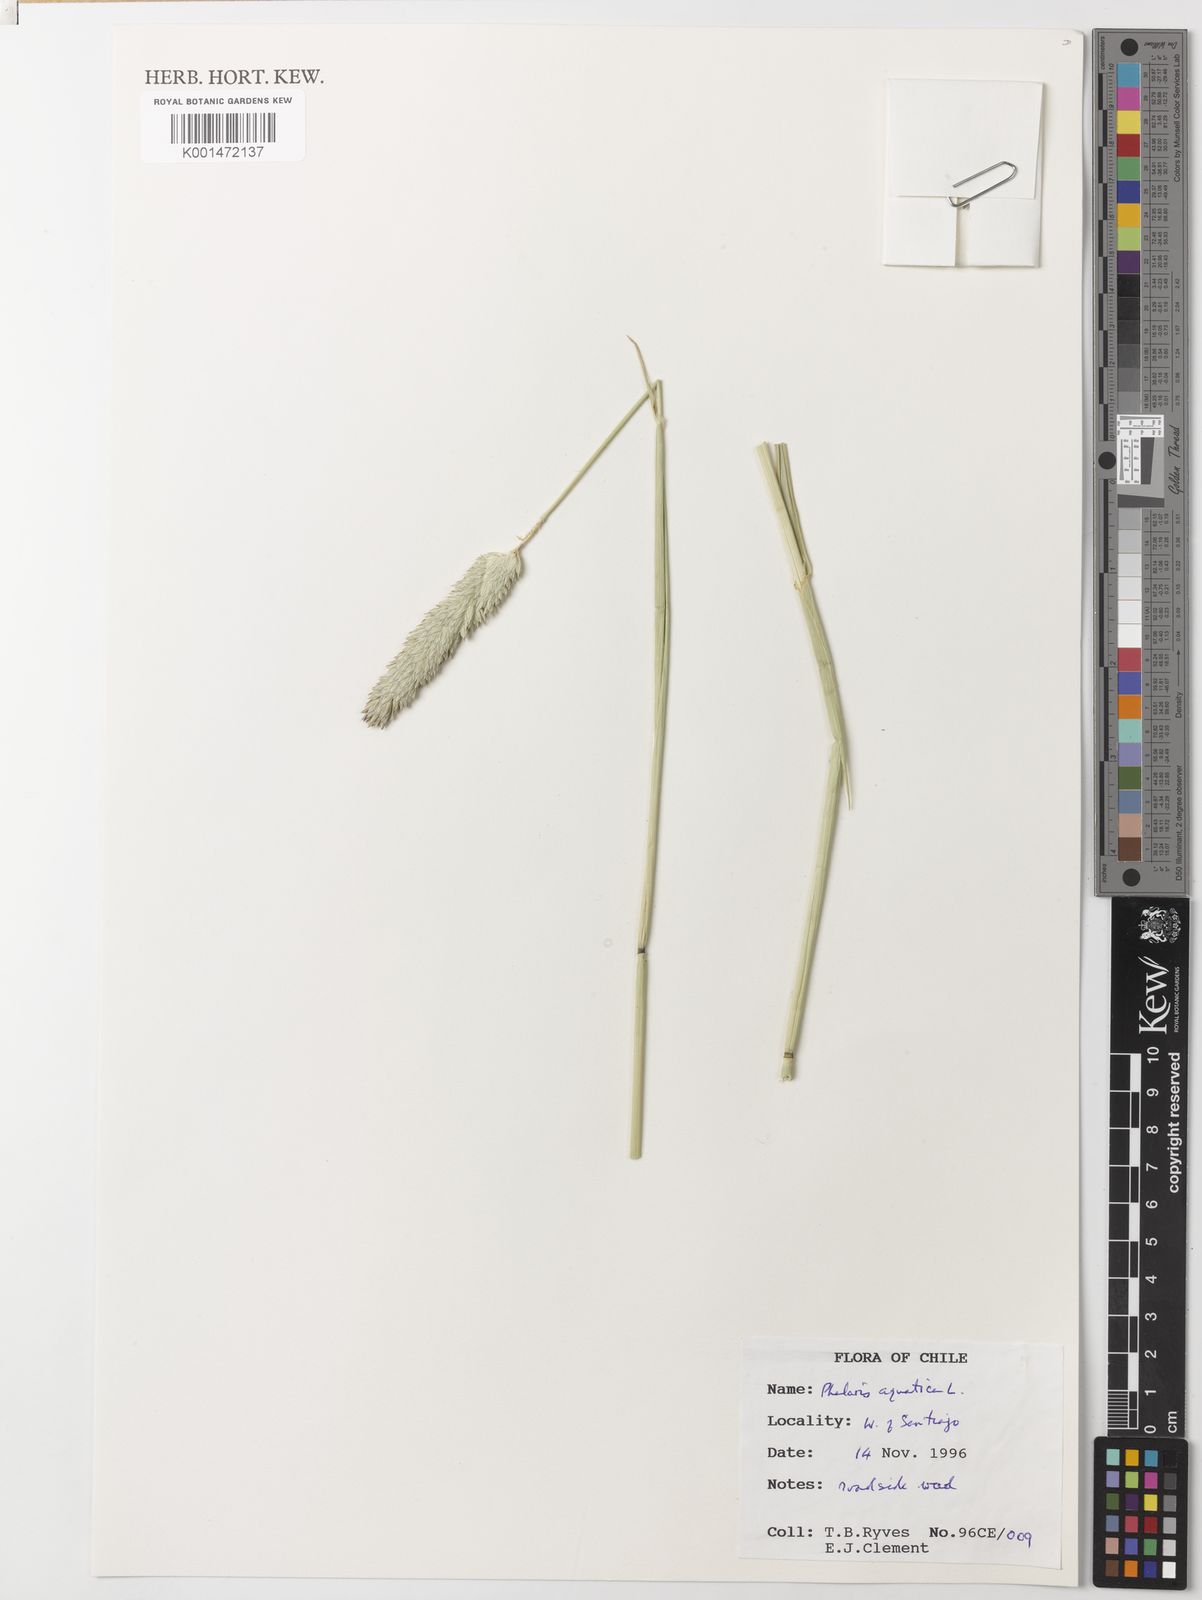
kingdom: Plantae
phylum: Tracheophyta
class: Liliopsida
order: Poales
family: Poaceae
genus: Phalaris
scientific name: Phalaris aquatica
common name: Bulbous canary-grass
